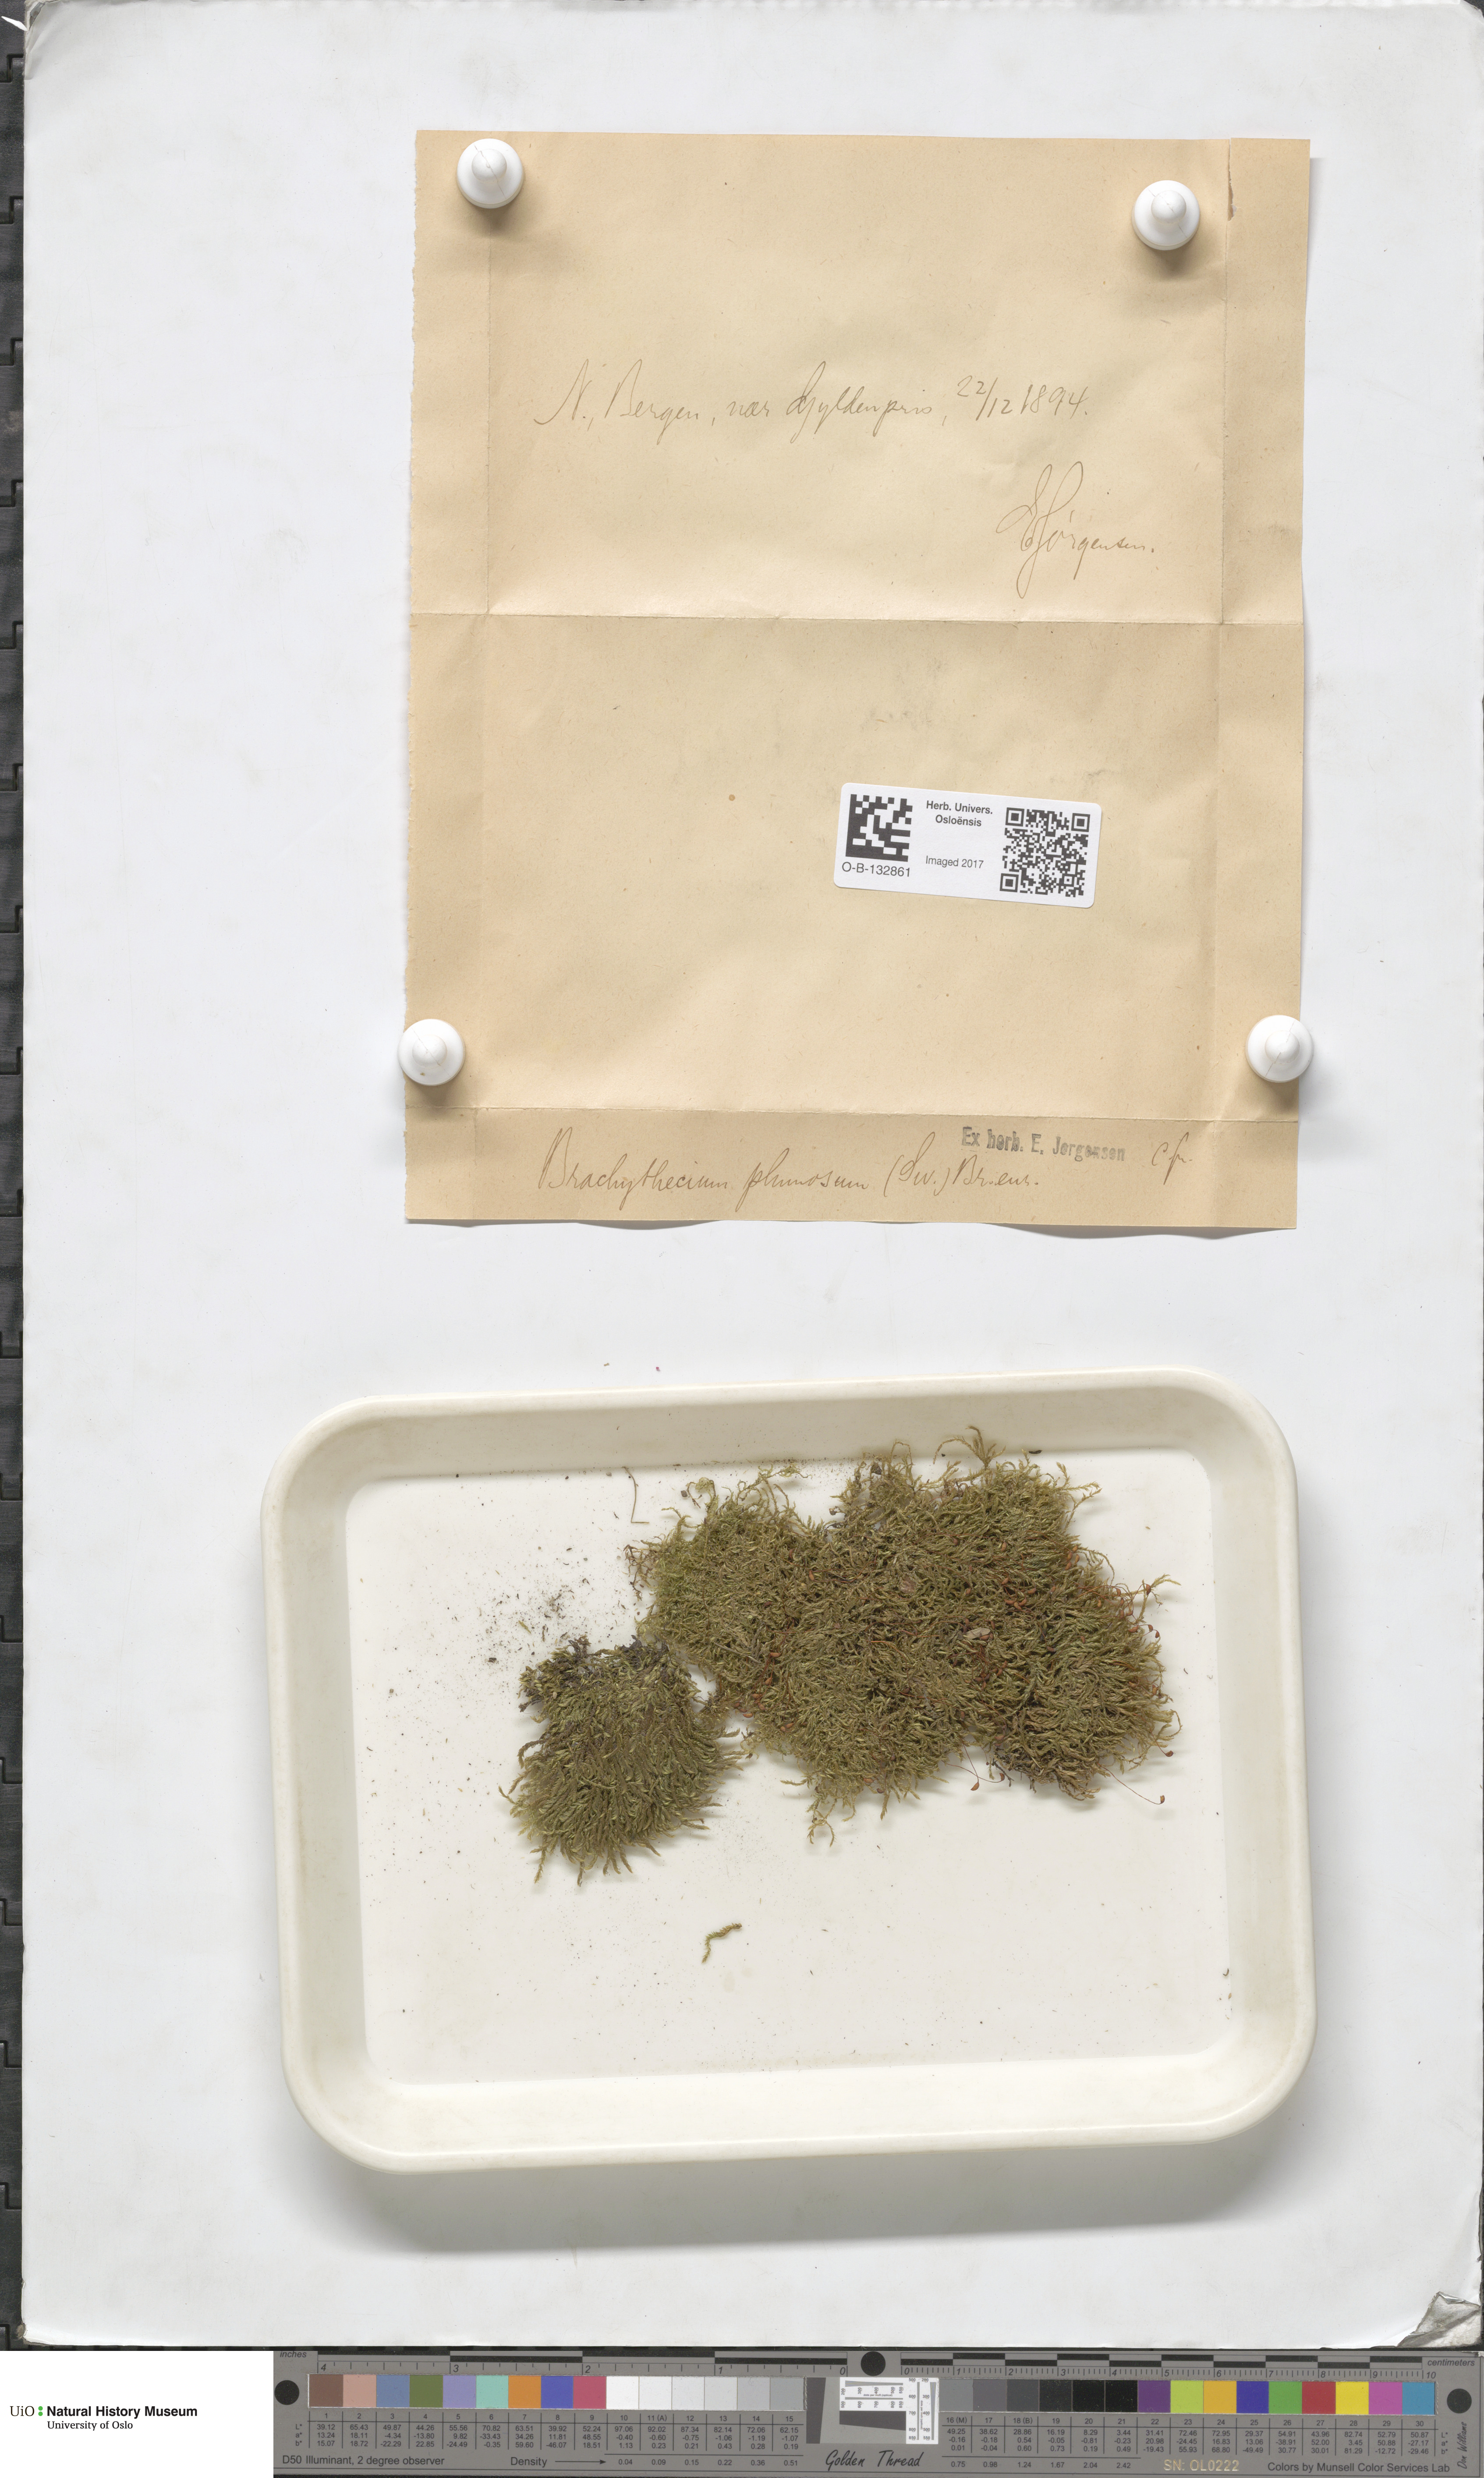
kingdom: Plantae
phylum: Bryophyta
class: Bryopsida
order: Hypnales
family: Brachytheciaceae
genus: Sciuro-hypnum
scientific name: Sciuro-hypnum plumosum
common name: Rusty feather-moss
